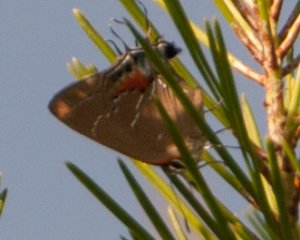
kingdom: Animalia
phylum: Arthropoda
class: Insecta
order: Lepidoptera
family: Lycaenidae
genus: Fixsenia
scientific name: Fixsenia favonius
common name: Oak Hairstreak
